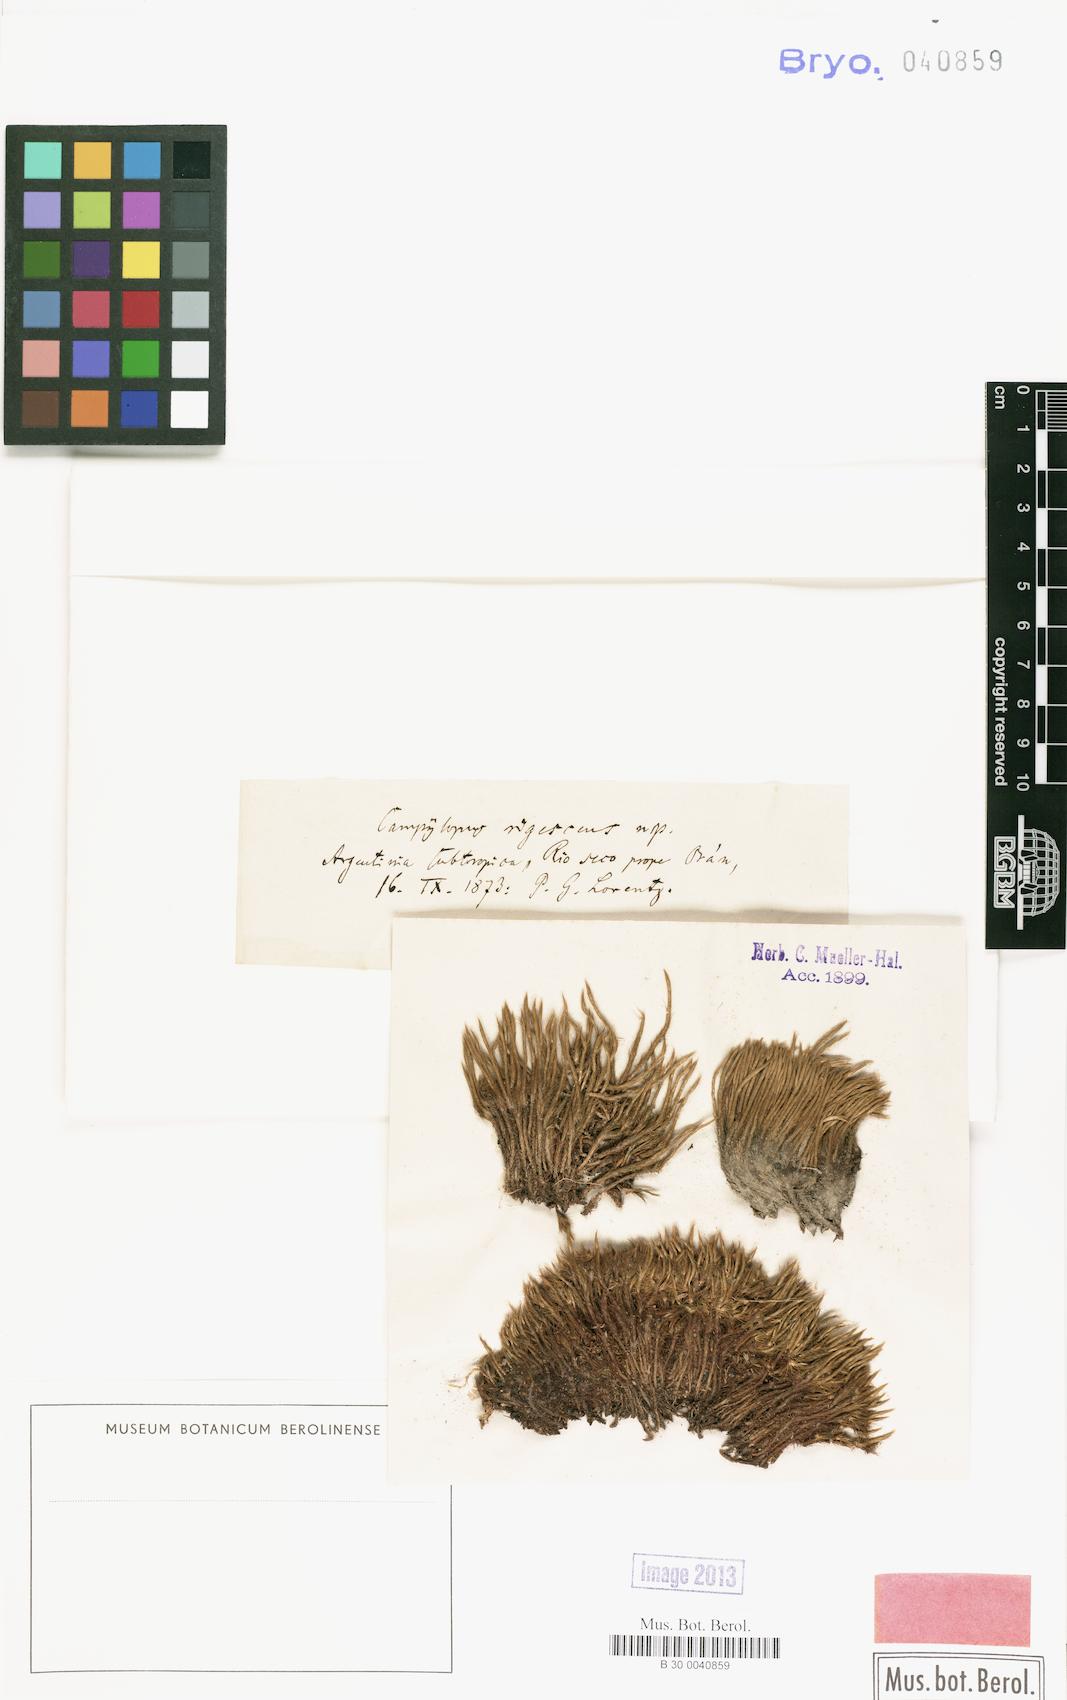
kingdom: Plantae
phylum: Bryophyta
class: Bryopsida
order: Dicranales
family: Dicranaceae
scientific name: Dicranaceae
